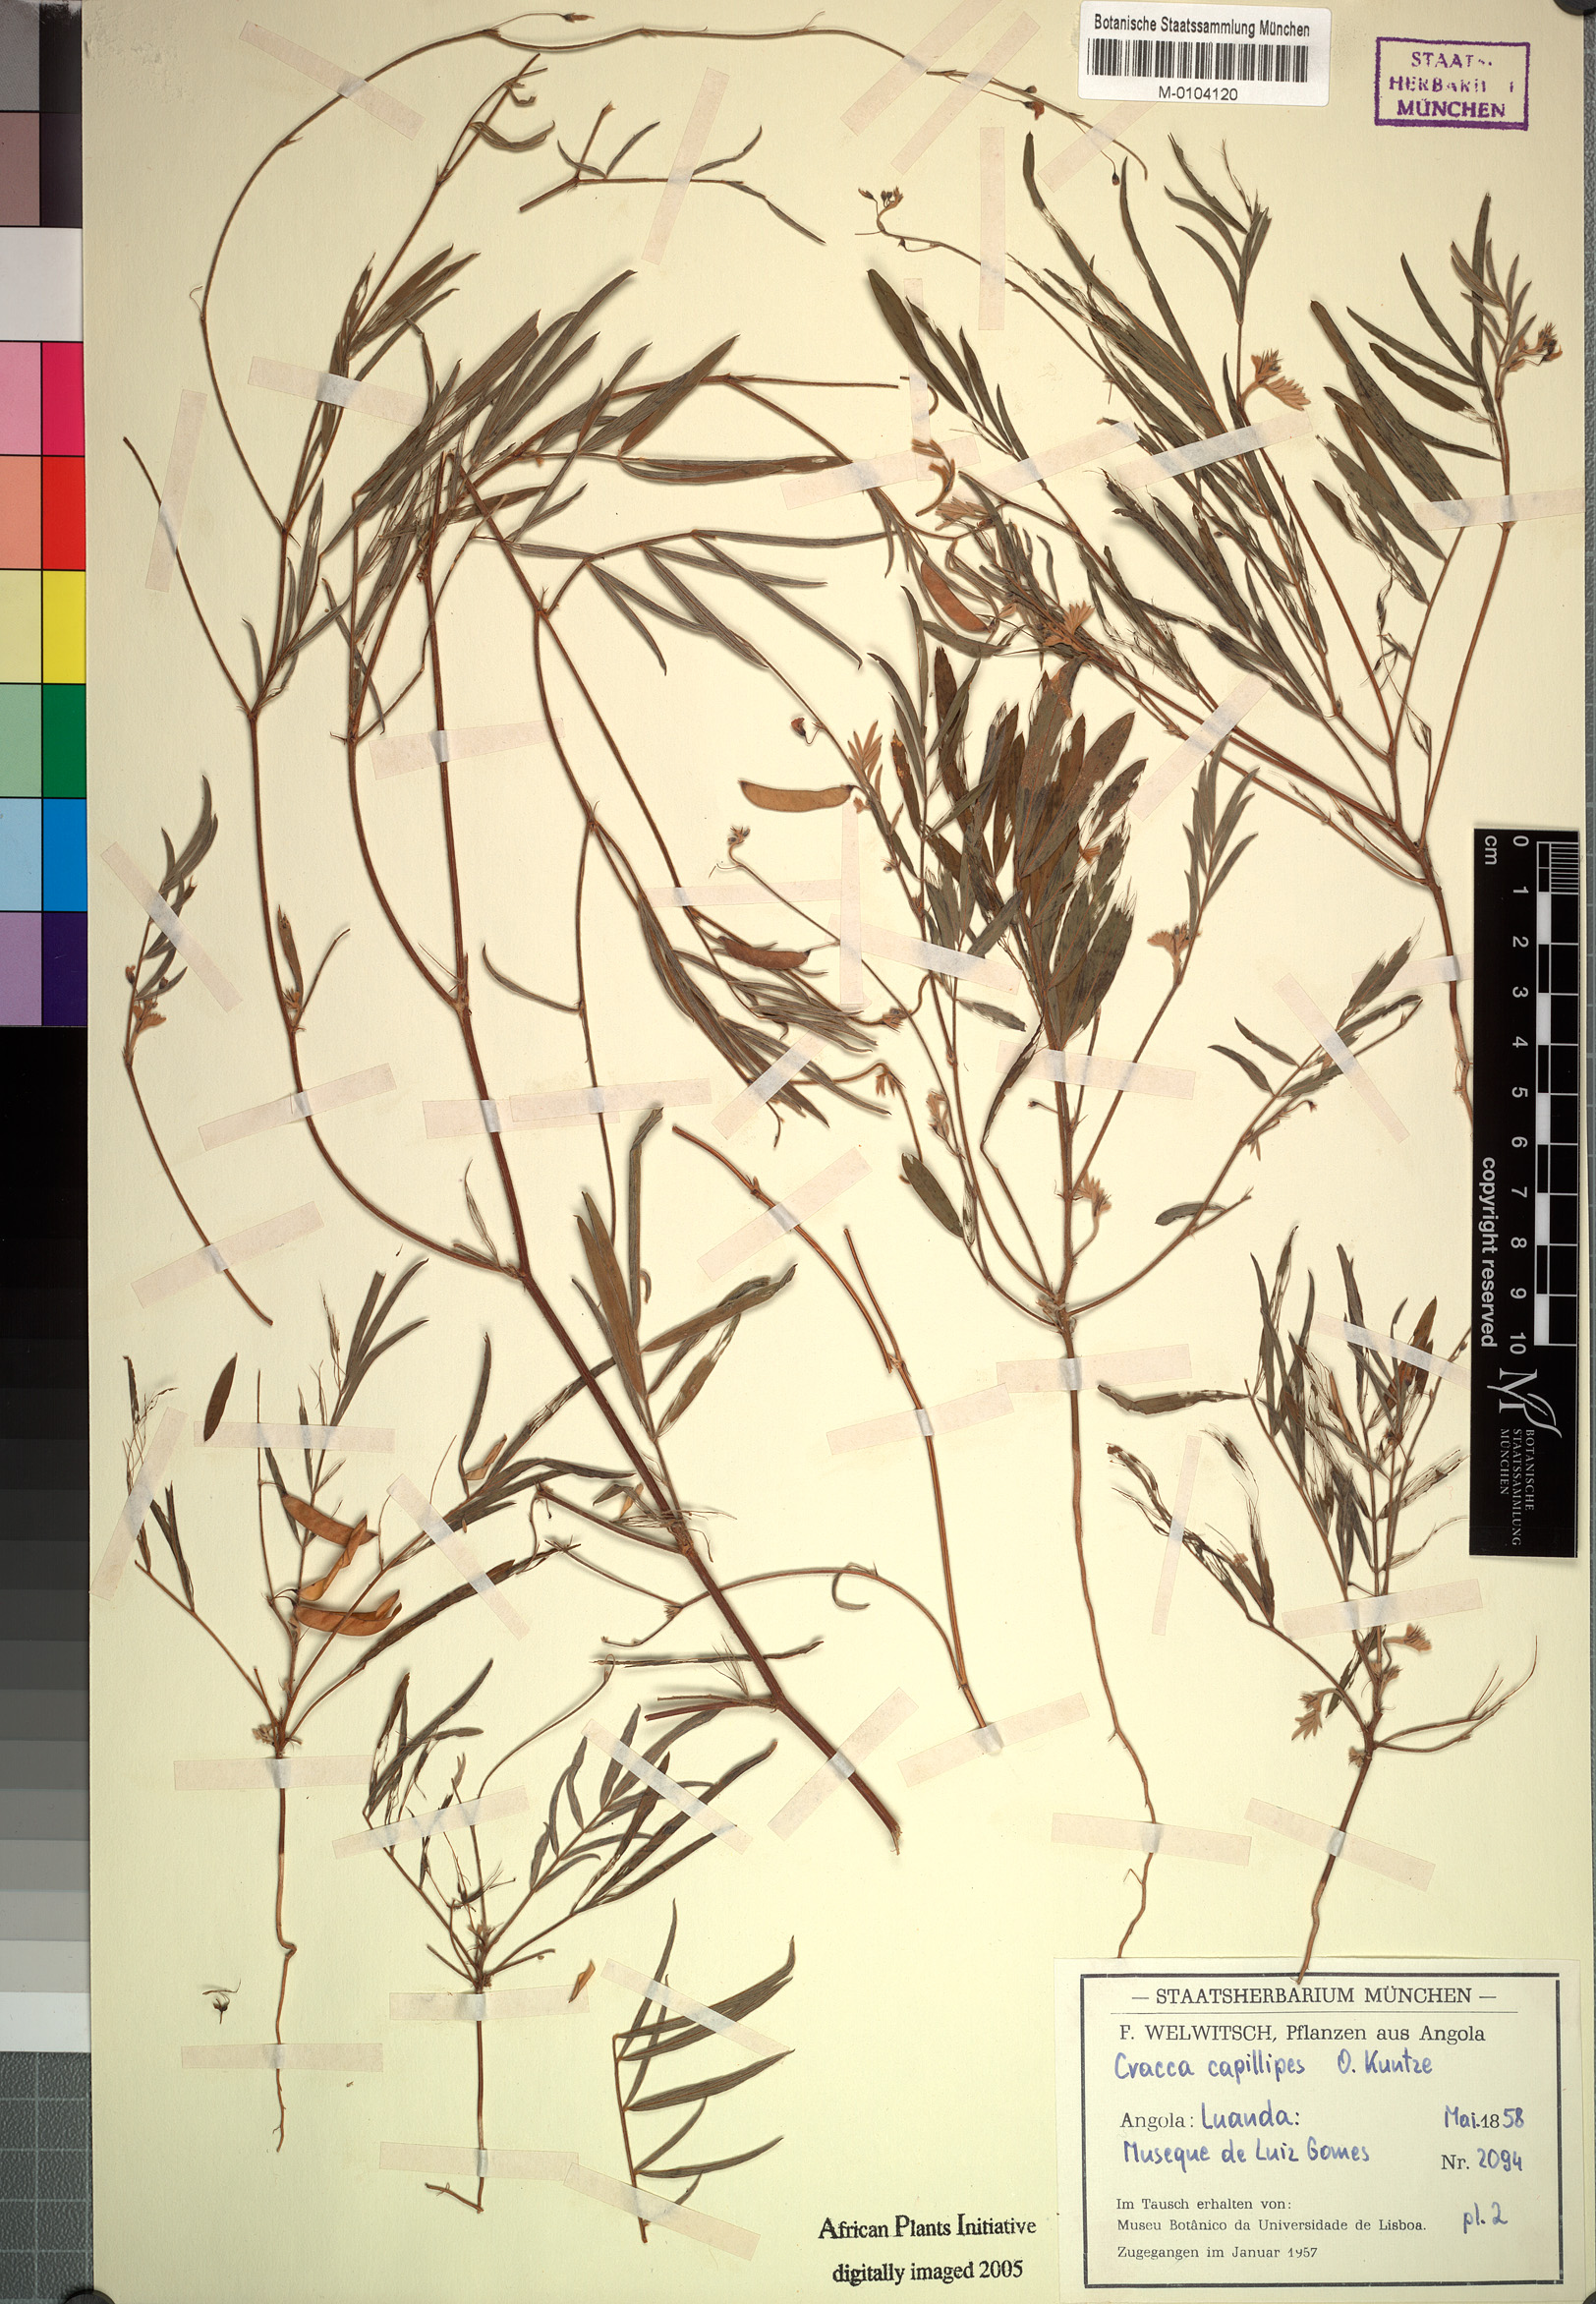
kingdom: Plantae
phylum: Tracheophyta
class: Magnoliopsida
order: Fabales
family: Fabaceae
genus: Tephrosia
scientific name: Tephrosia dregeana
